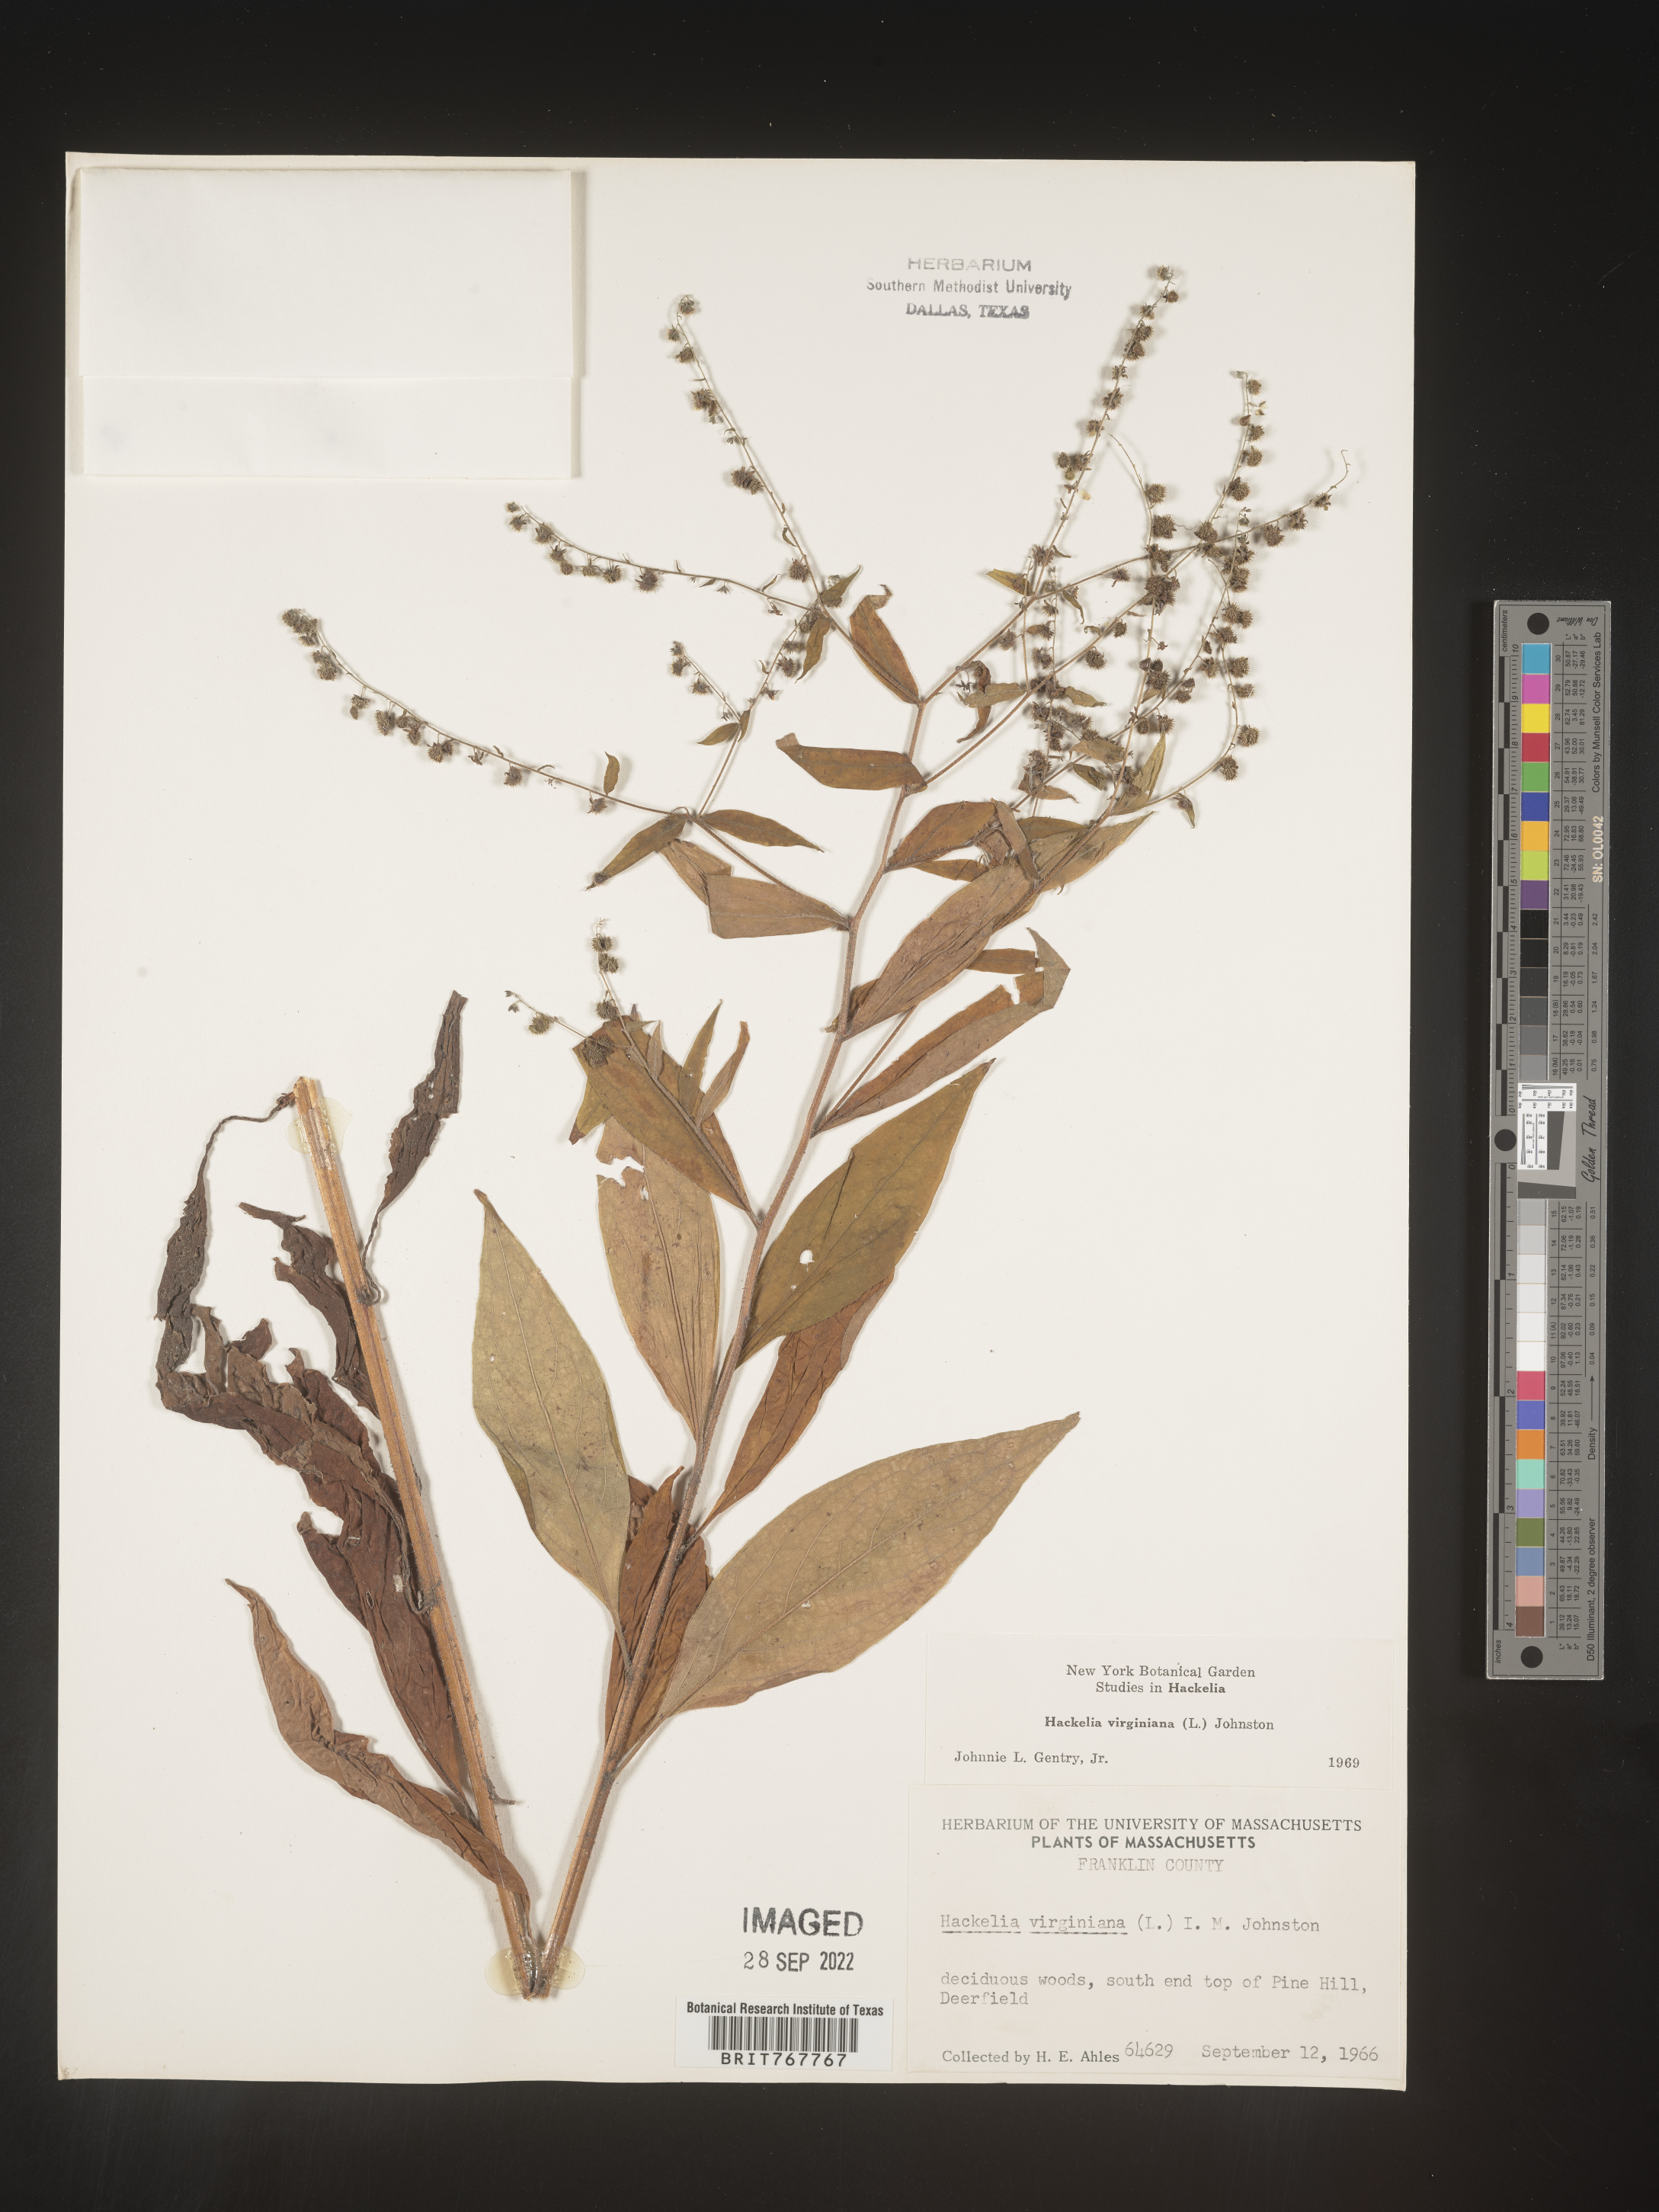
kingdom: Plantae
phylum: Tracheophyta
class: Magnoliopsida
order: Boraginales
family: Boraginaceae
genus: Hackelia
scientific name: Hackelia virginiana
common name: Beggar's-lice
